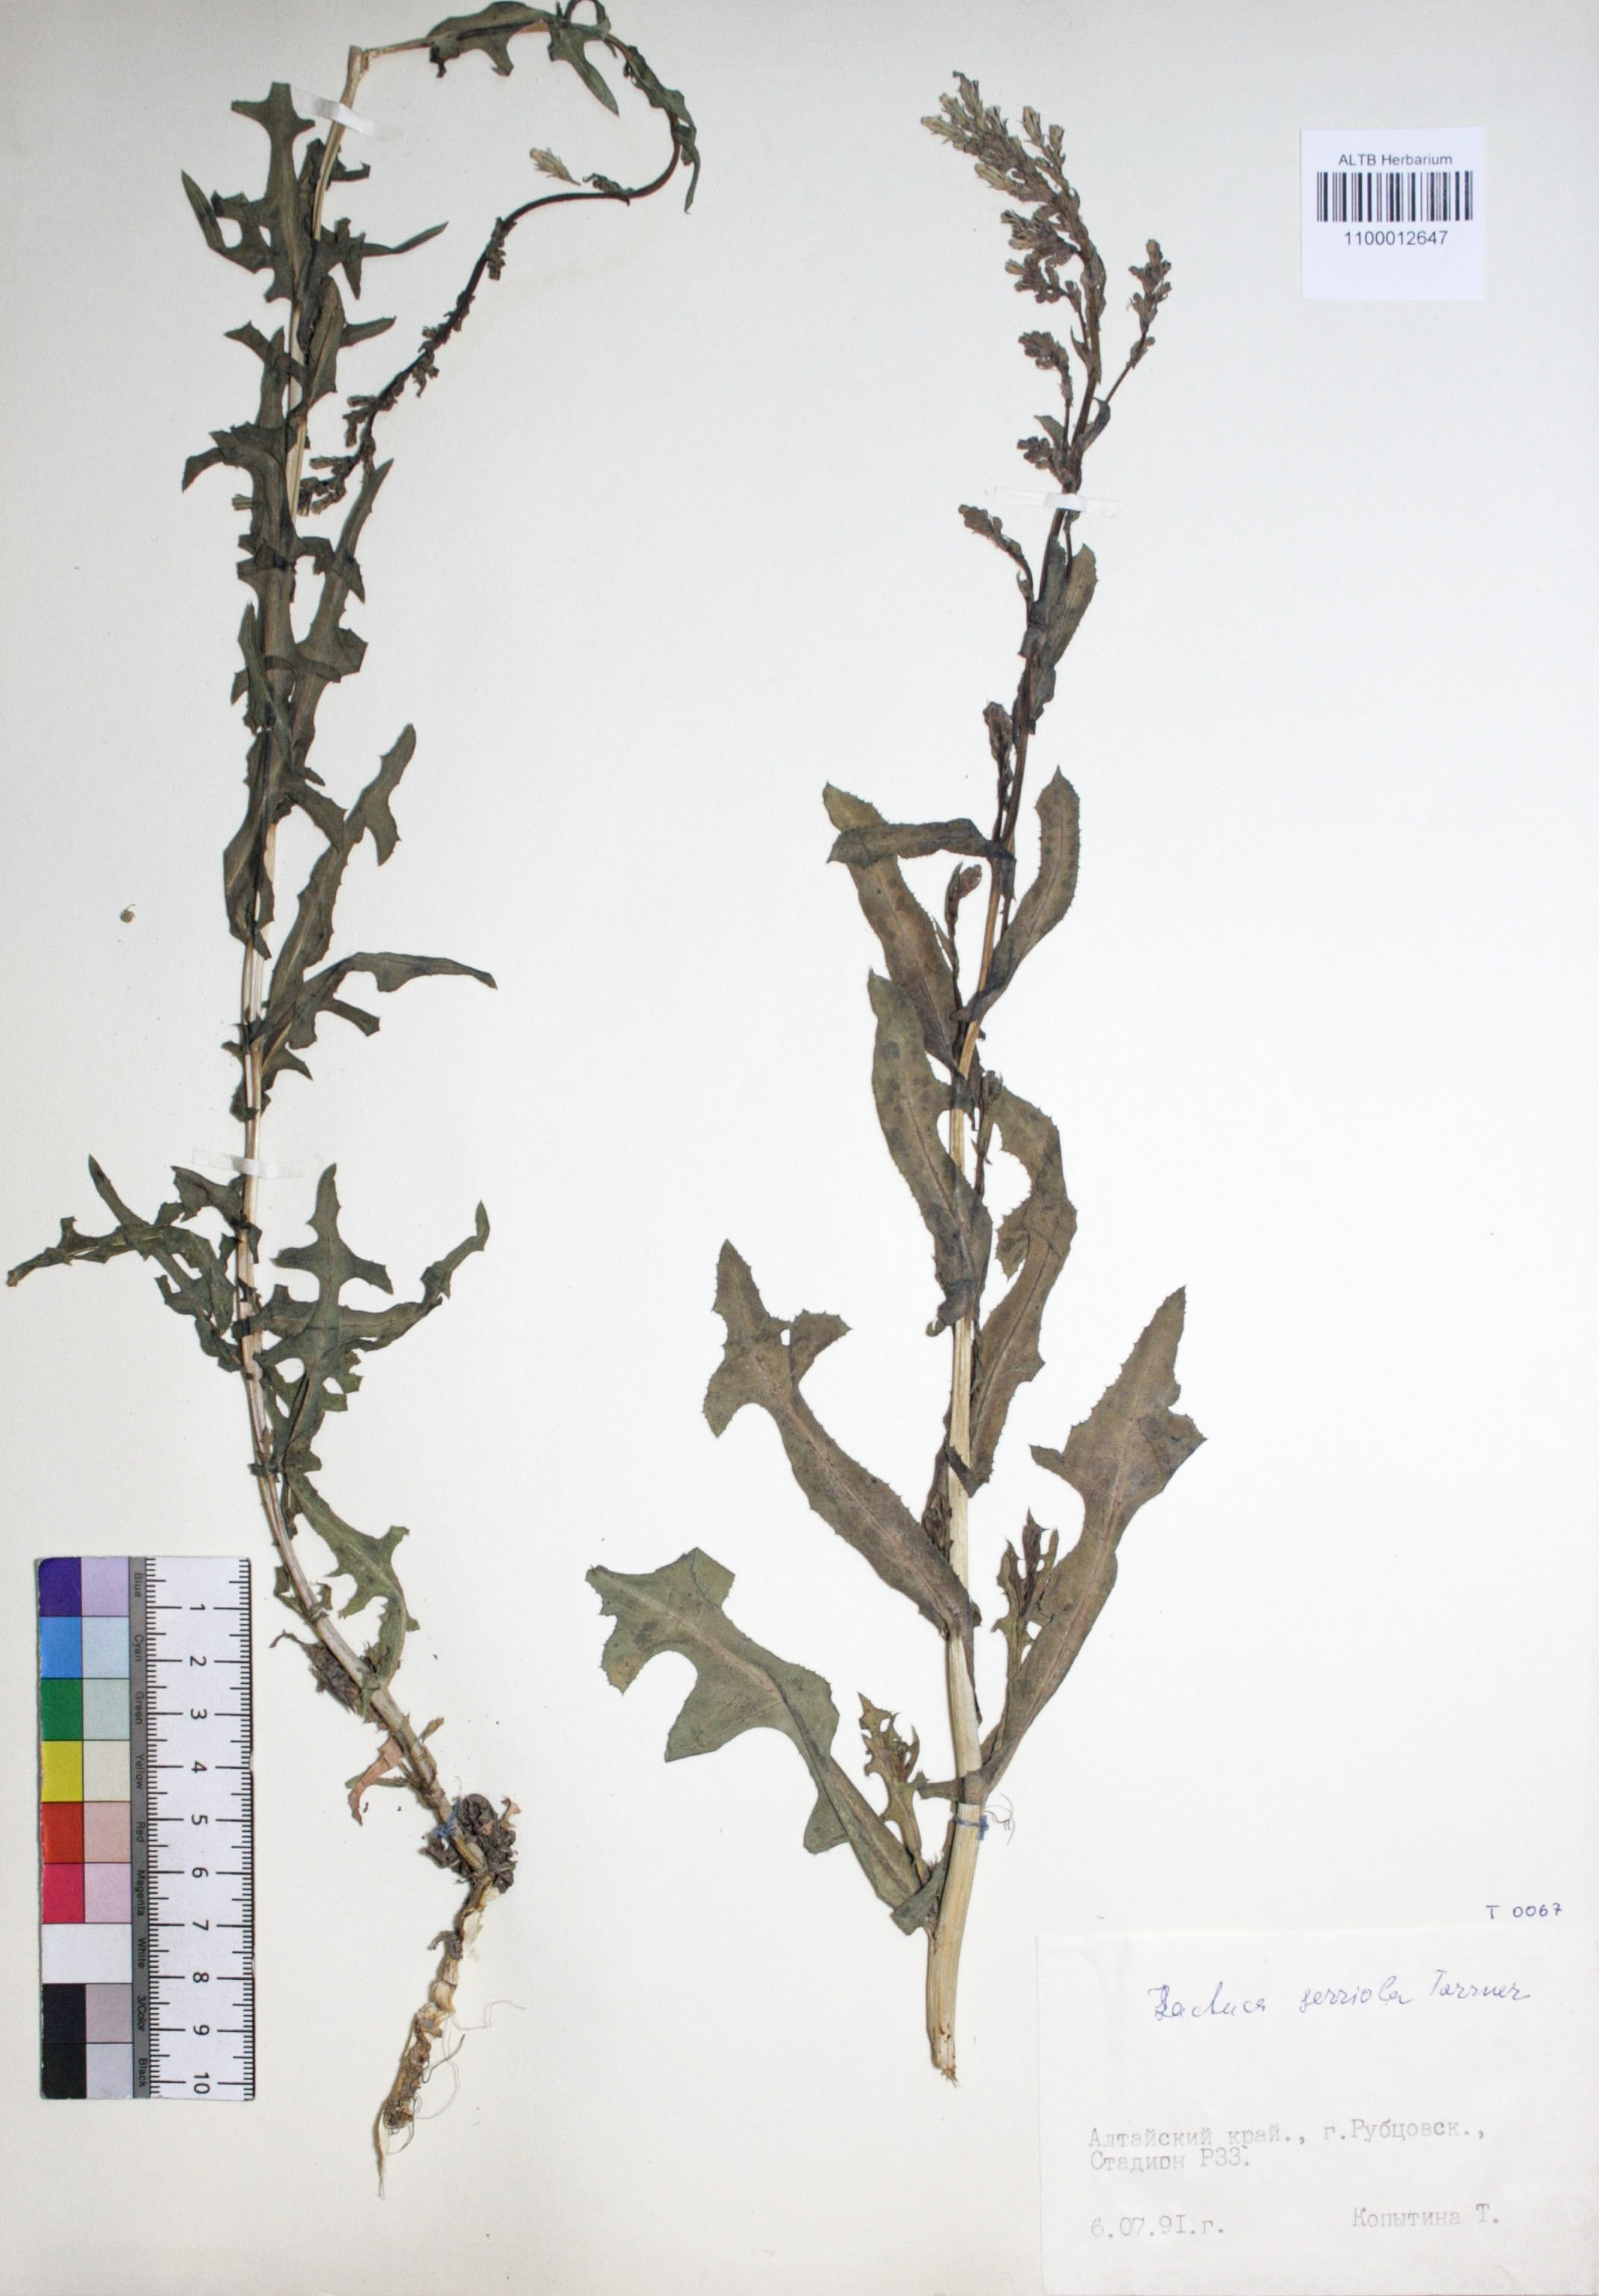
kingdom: Plantae
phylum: Tracheophyta
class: Magnoliopsida
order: Asterales
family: Asteraceae
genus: Lactuca
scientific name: Lactuca serriola
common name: Prickly lettuce
